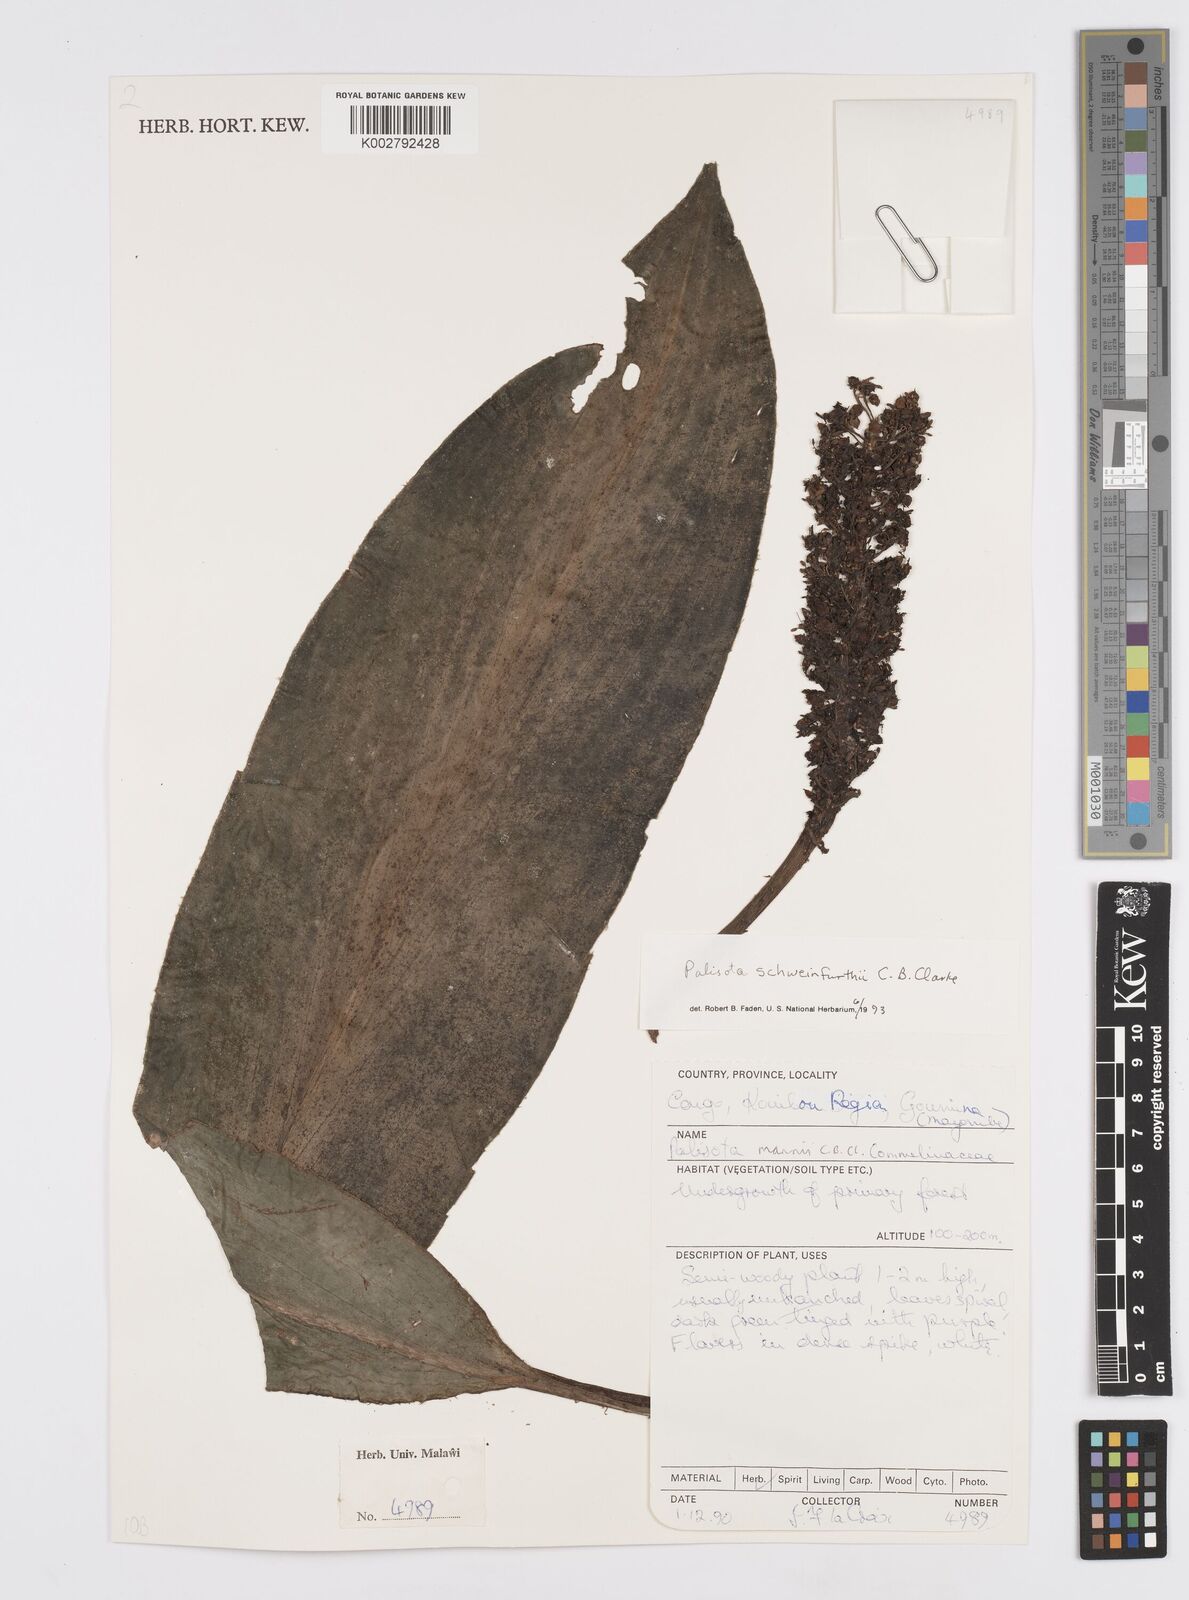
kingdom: Plantae
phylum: Tracheophyta
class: Liliopsida
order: Commelinales
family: Commelinaceae
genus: Palisota
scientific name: Palisota schweinfurthii
